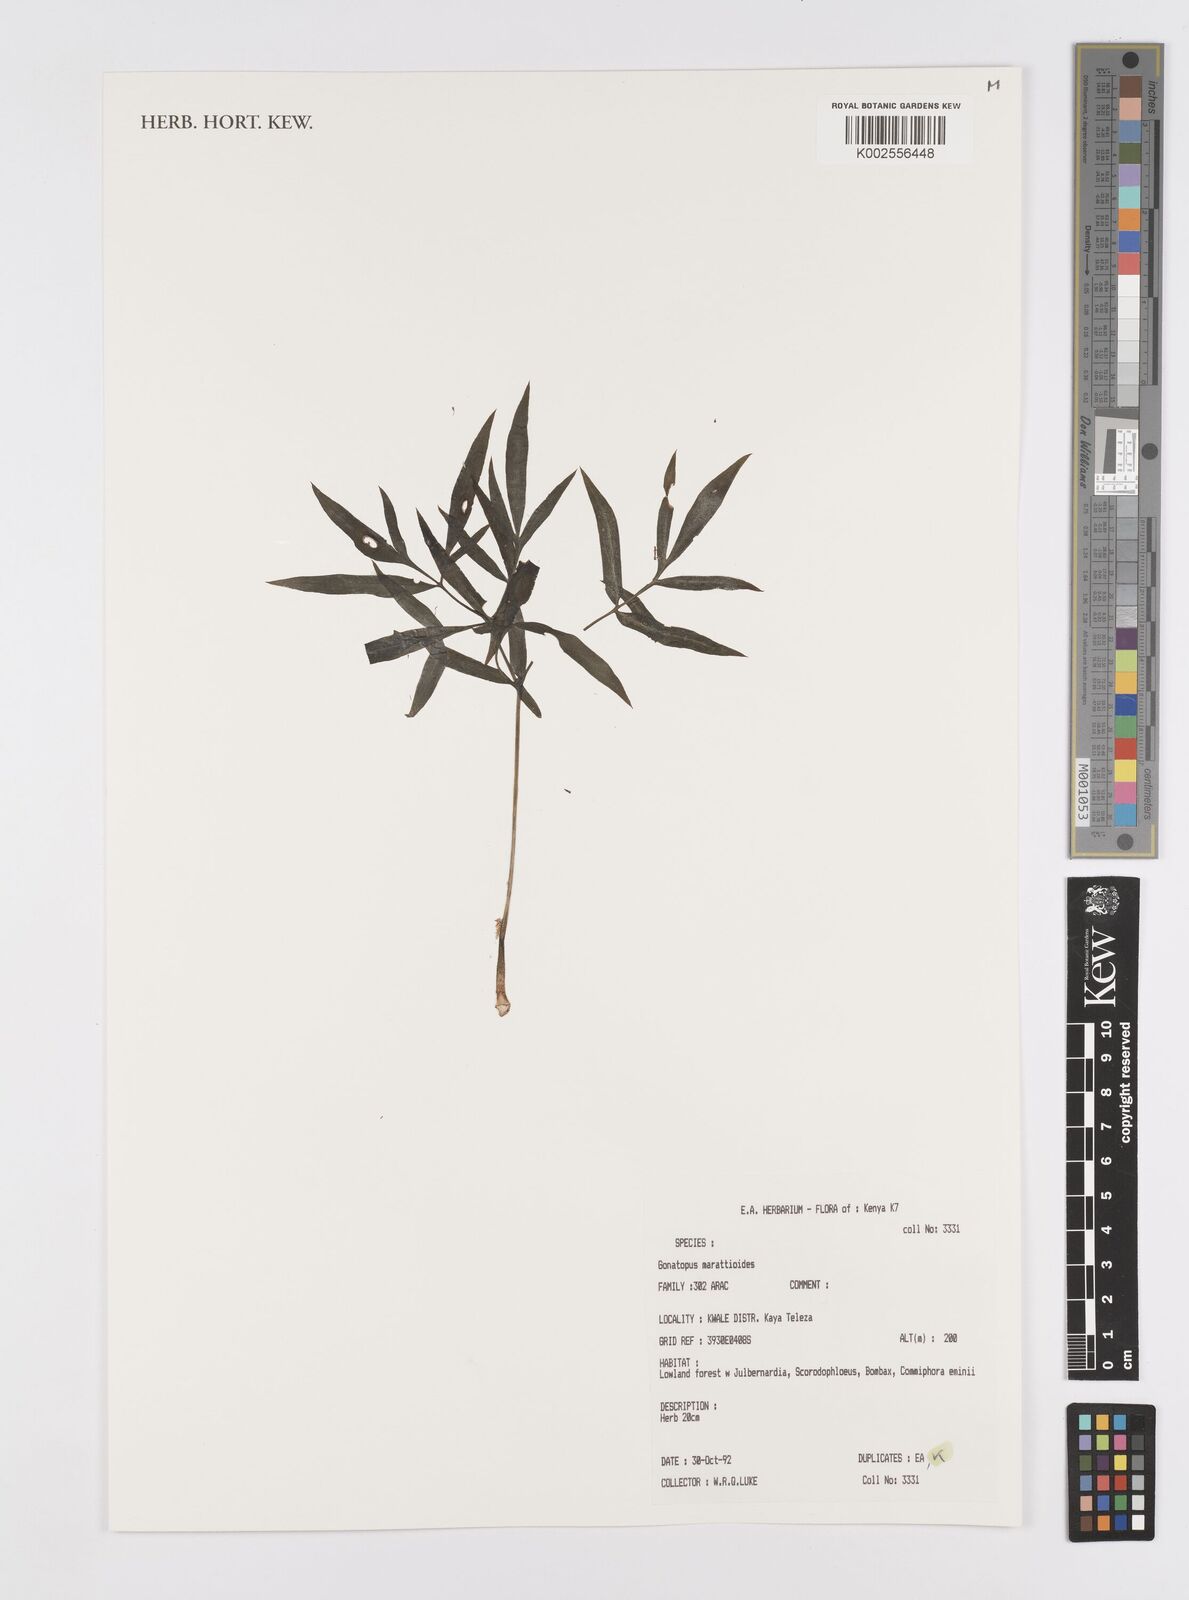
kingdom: Plantae
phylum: Tracheophyta
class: Liliopsida
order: Alismatales
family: Araceae
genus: Gonatopus
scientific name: Gonatopus marattioides
